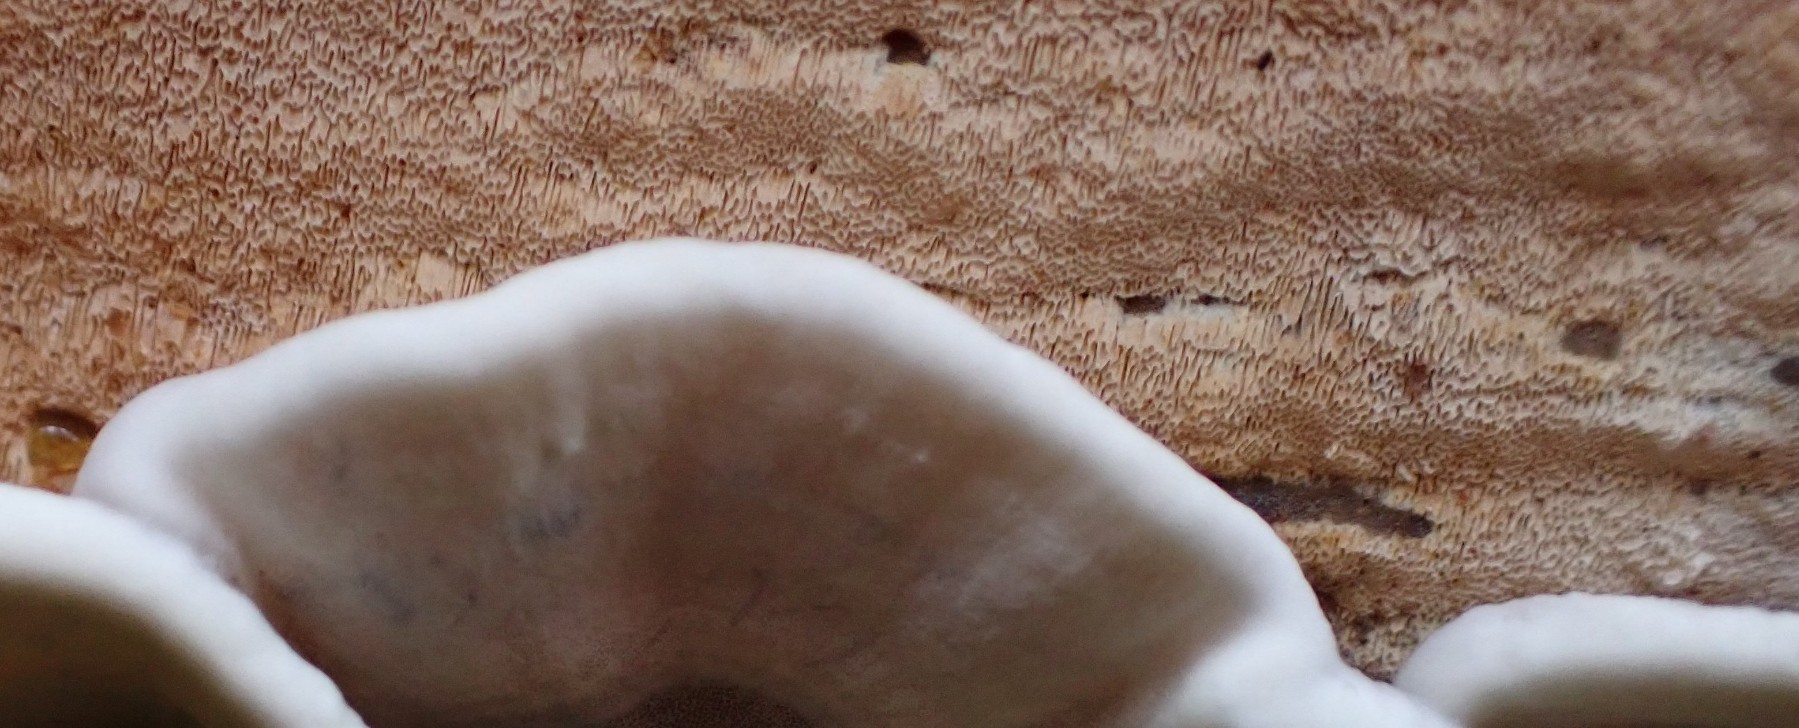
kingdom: Fungi
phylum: Basidiomycota
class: Agaricomycetes
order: Polyporales
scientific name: Polyporales
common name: poresvampordenen
